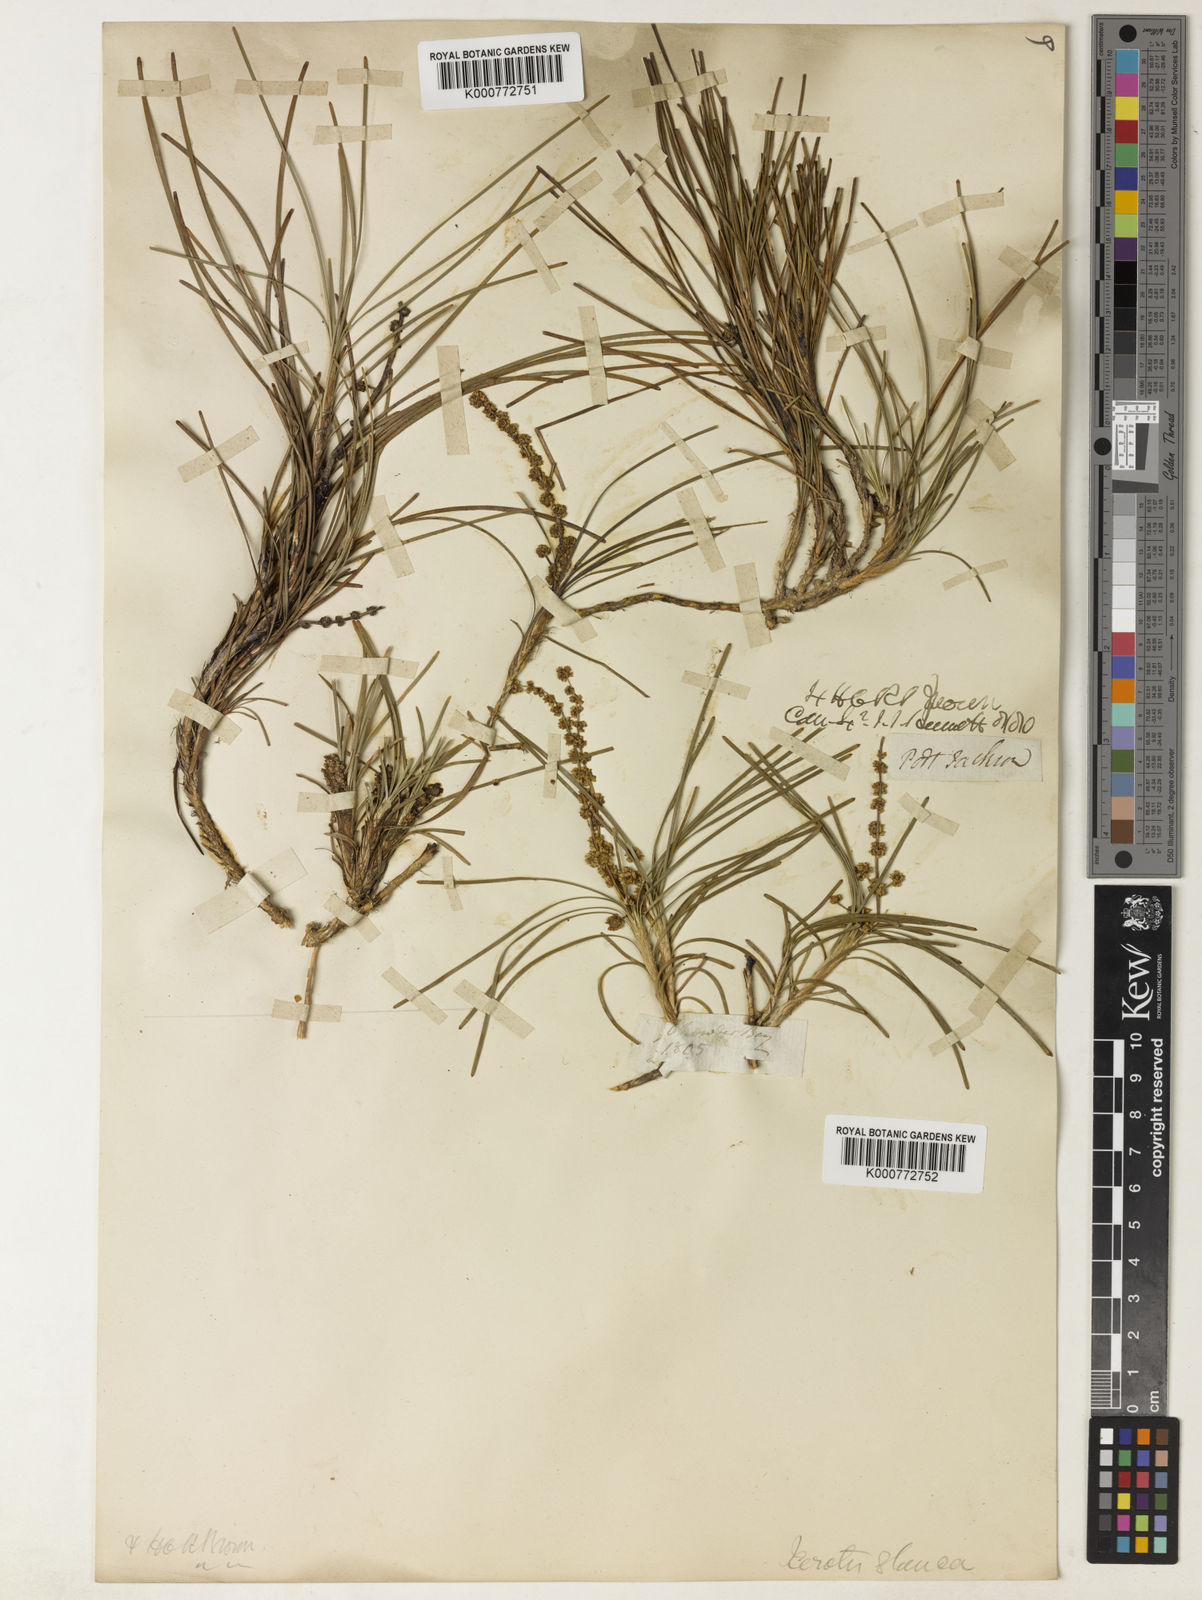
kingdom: Plantae
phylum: Tracheophyta
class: Liliopsida
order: Asparagales
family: Asparagaceae
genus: Lomandra
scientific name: Lomandra glauca
